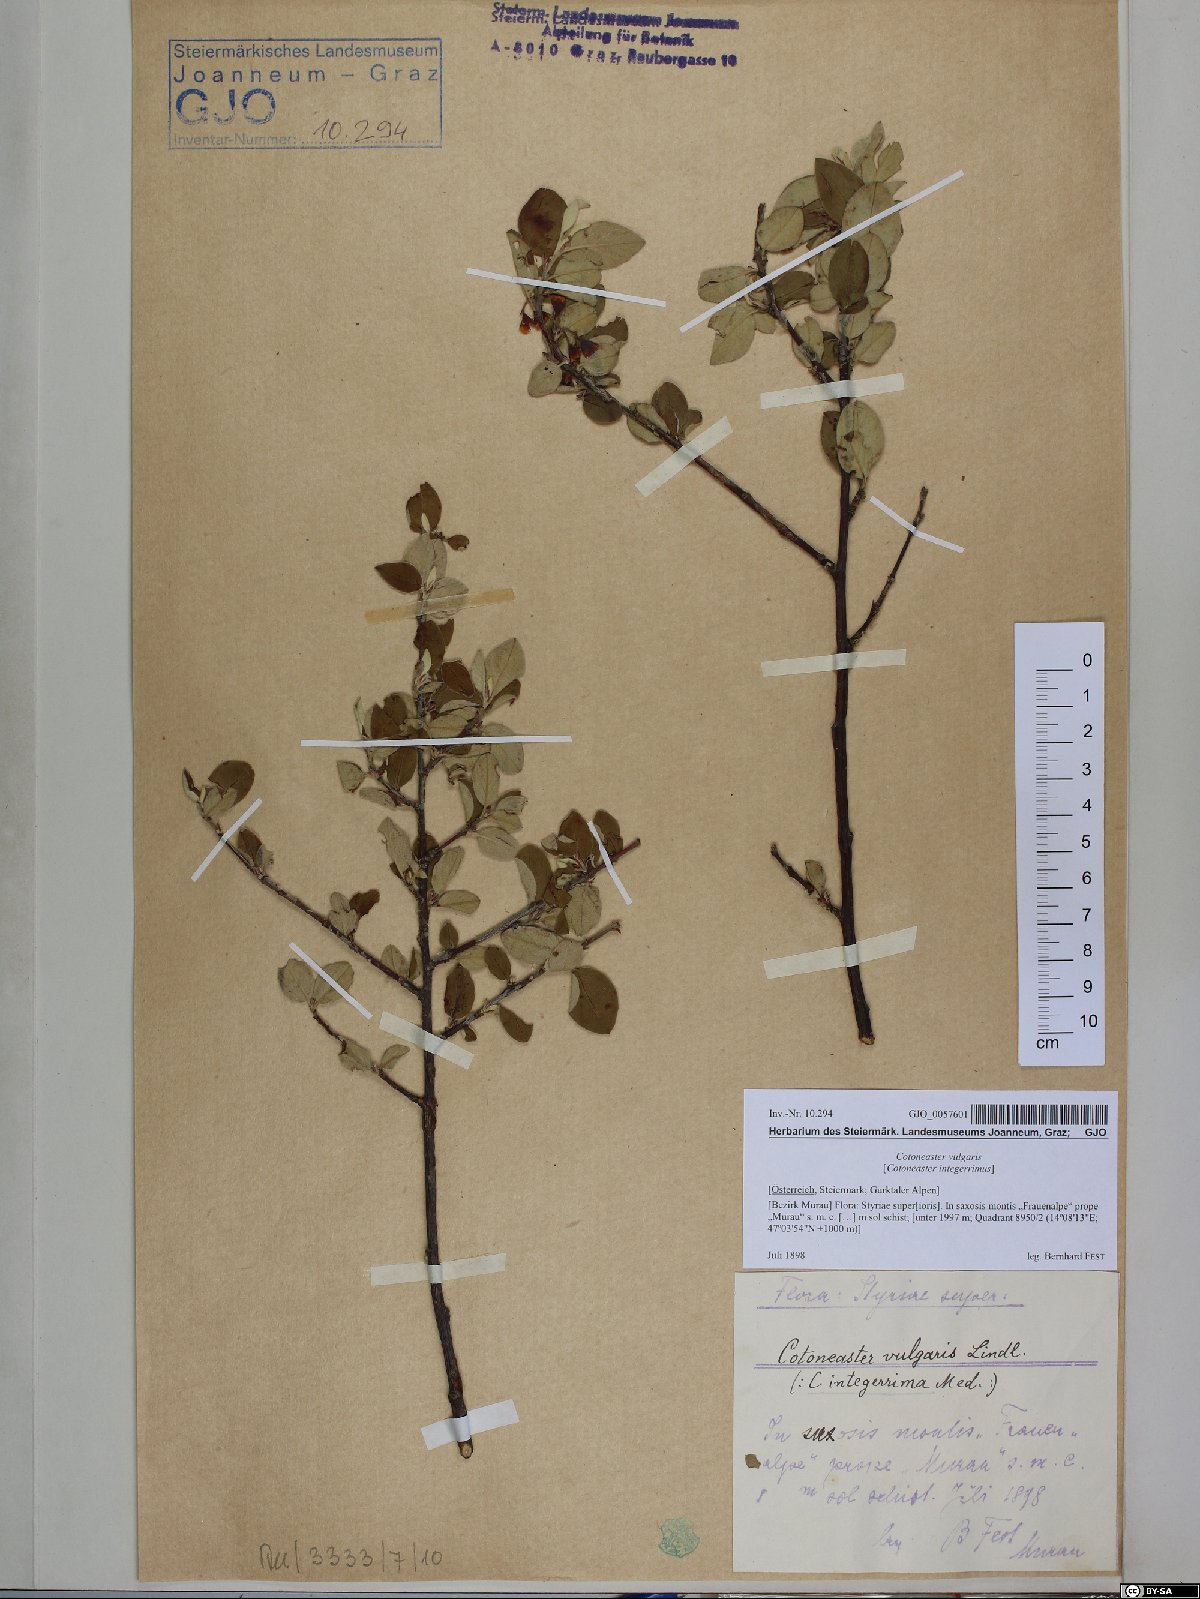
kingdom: Plantae
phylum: Tracheophyta
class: Magnoliopsida
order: Rosales
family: Rosaceae
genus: Cotoneaster
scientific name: Cotoneaster integerrimus
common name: Wild cotoneaster
